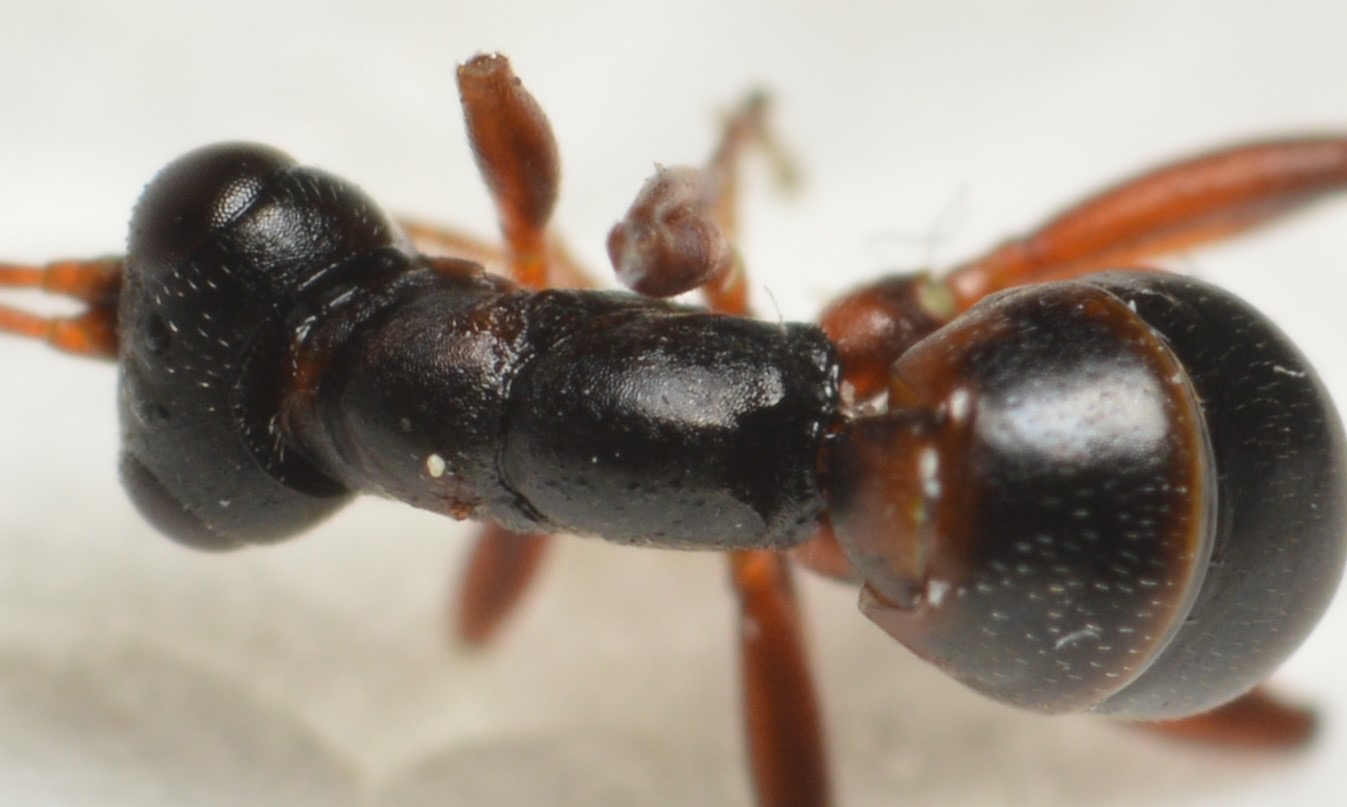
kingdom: Animalia
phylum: Arthropoda
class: Insecta
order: Hymenoptera
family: Ichneumonidae
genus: Gelis
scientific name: Gelis agilis
